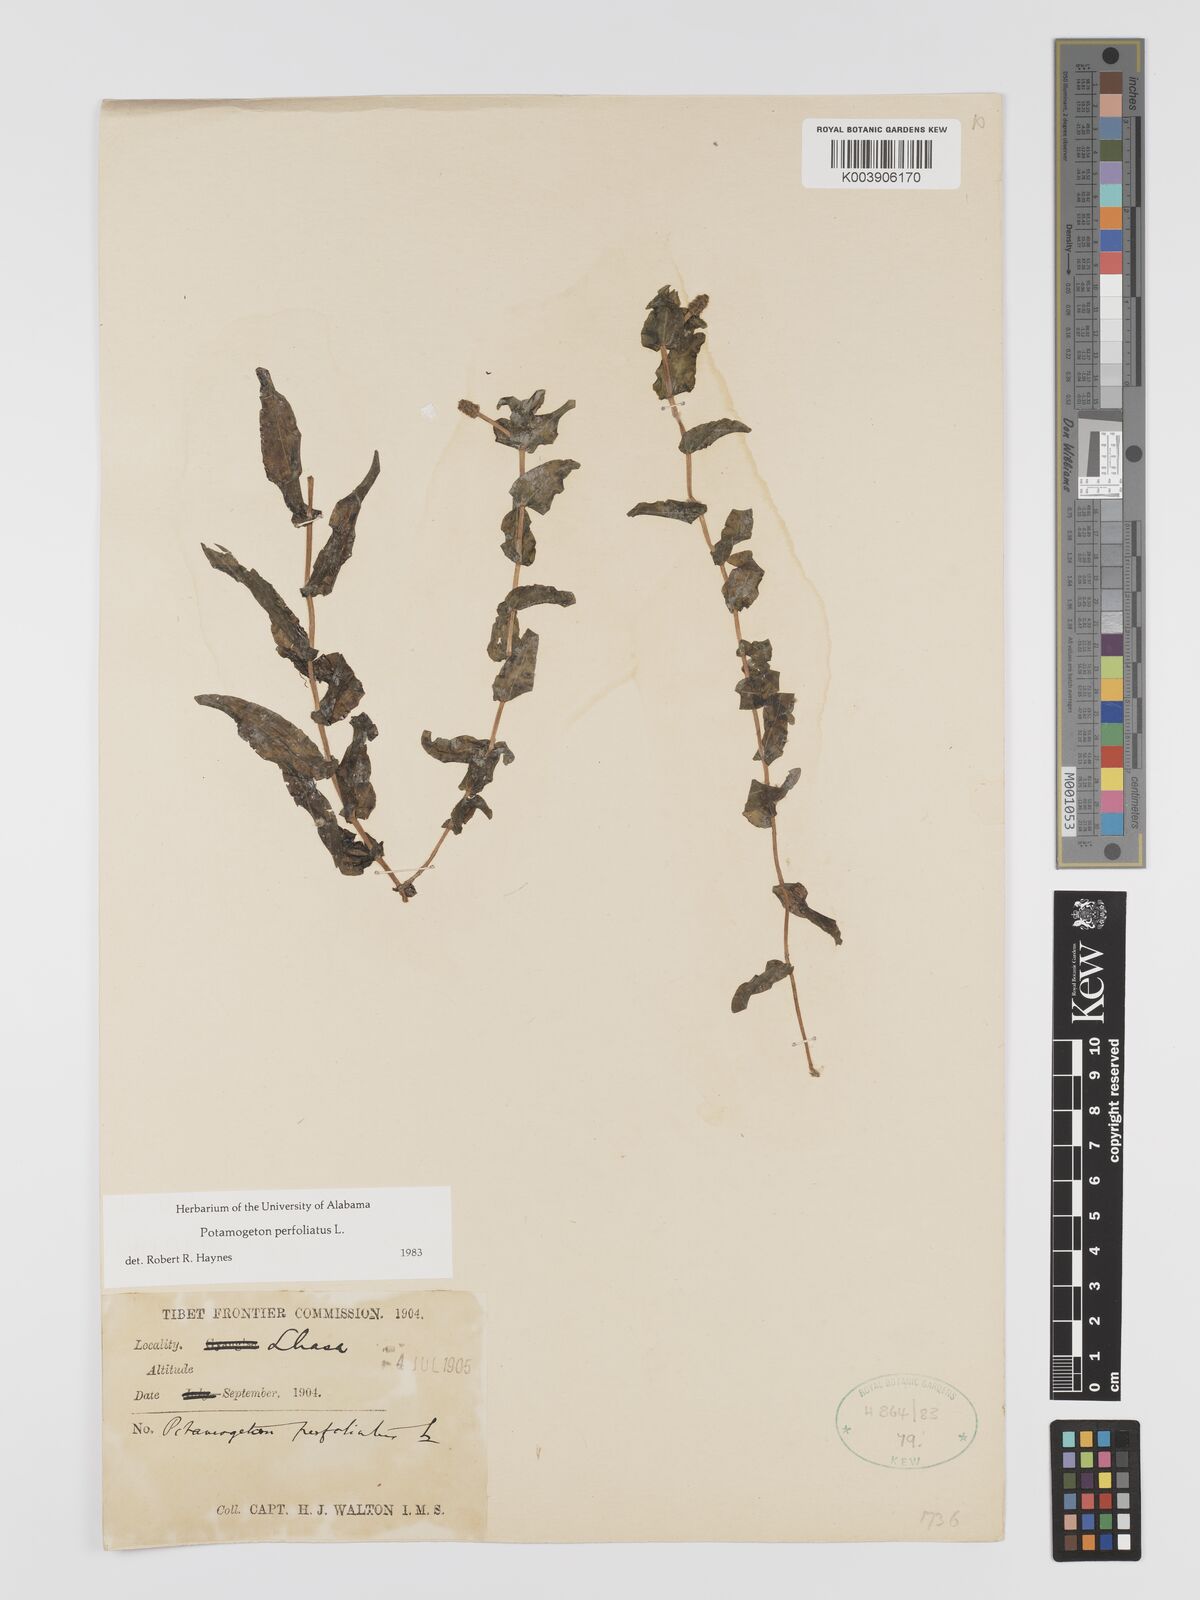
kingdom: Plantae
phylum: Tracheophyta
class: Liliopsida
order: Alismatales
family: Potamogetonaceae
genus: Potamogeton
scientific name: Potamogeton perfoliatus
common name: Perfoliate pondweed
